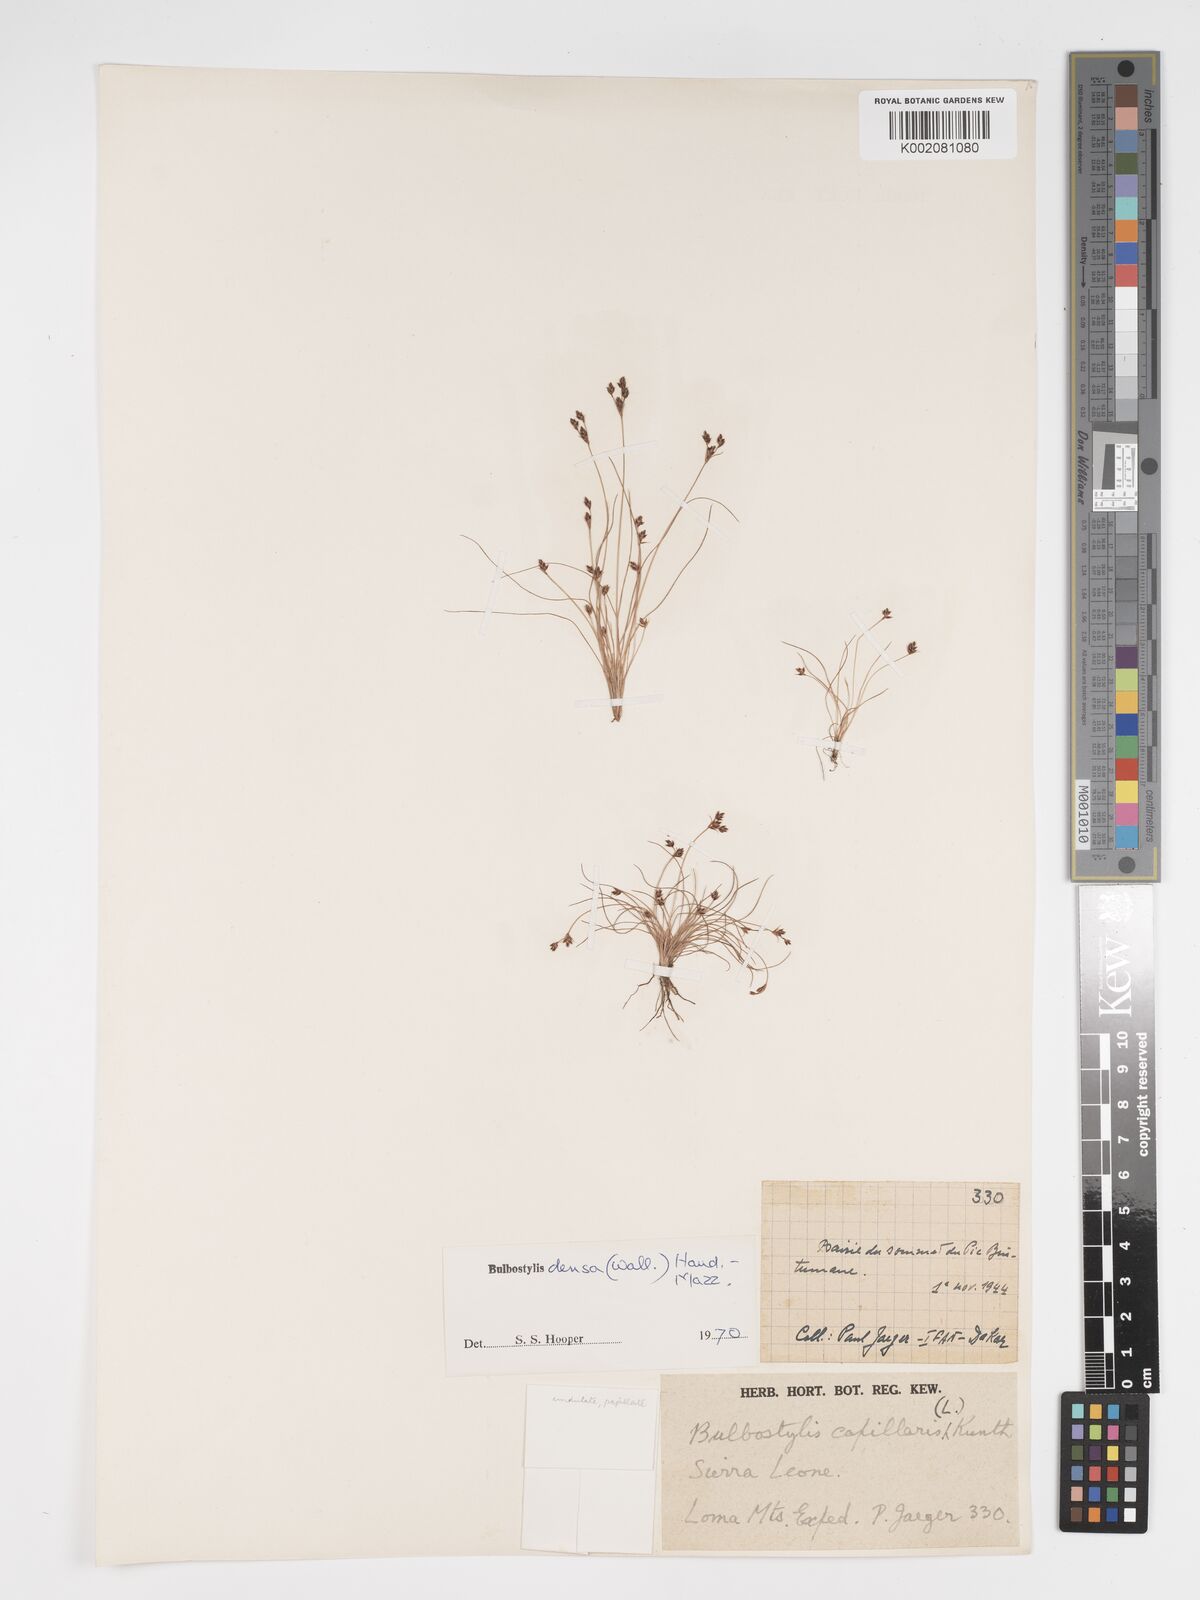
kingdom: Plantae
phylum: Tracheophyta
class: Liliopsida
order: Poales
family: Cyperaceae
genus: Bulbostylis
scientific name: Bulbostylis
